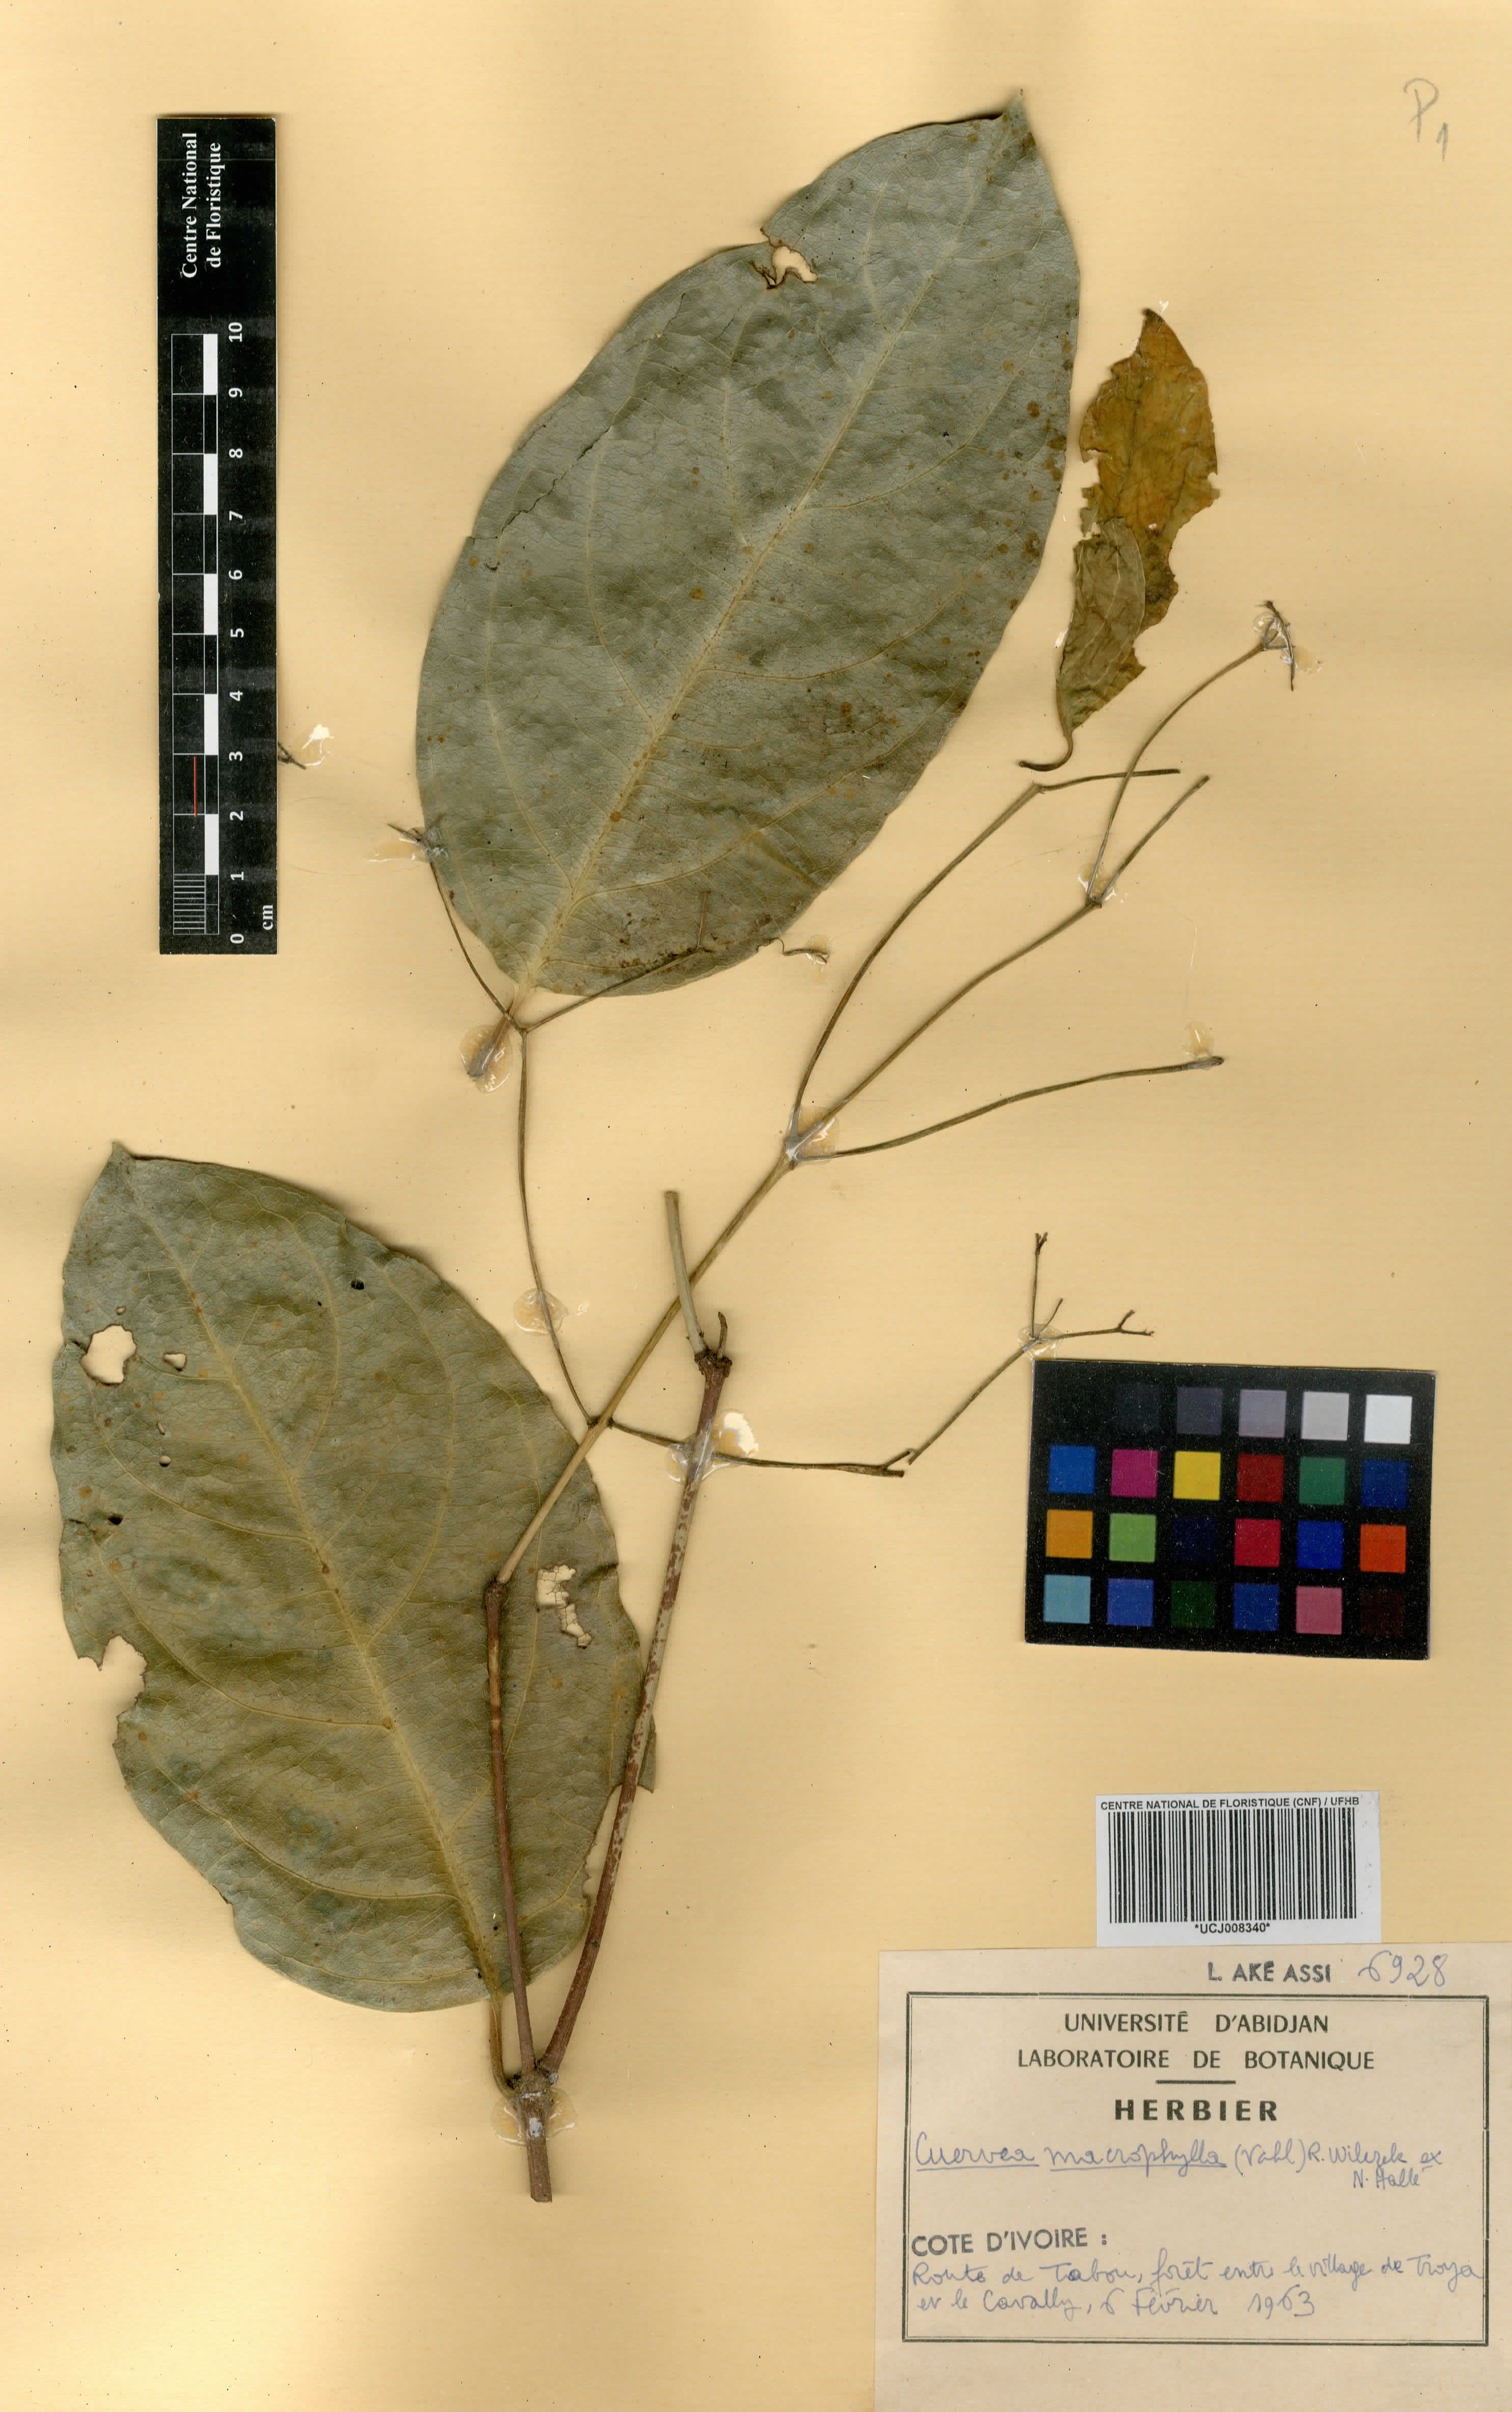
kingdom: Plantae
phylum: Tracheophyta
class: Magnoliopsida
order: Celastrales
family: Celastraceae
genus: Cuervea
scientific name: Cuervea macrophylla
